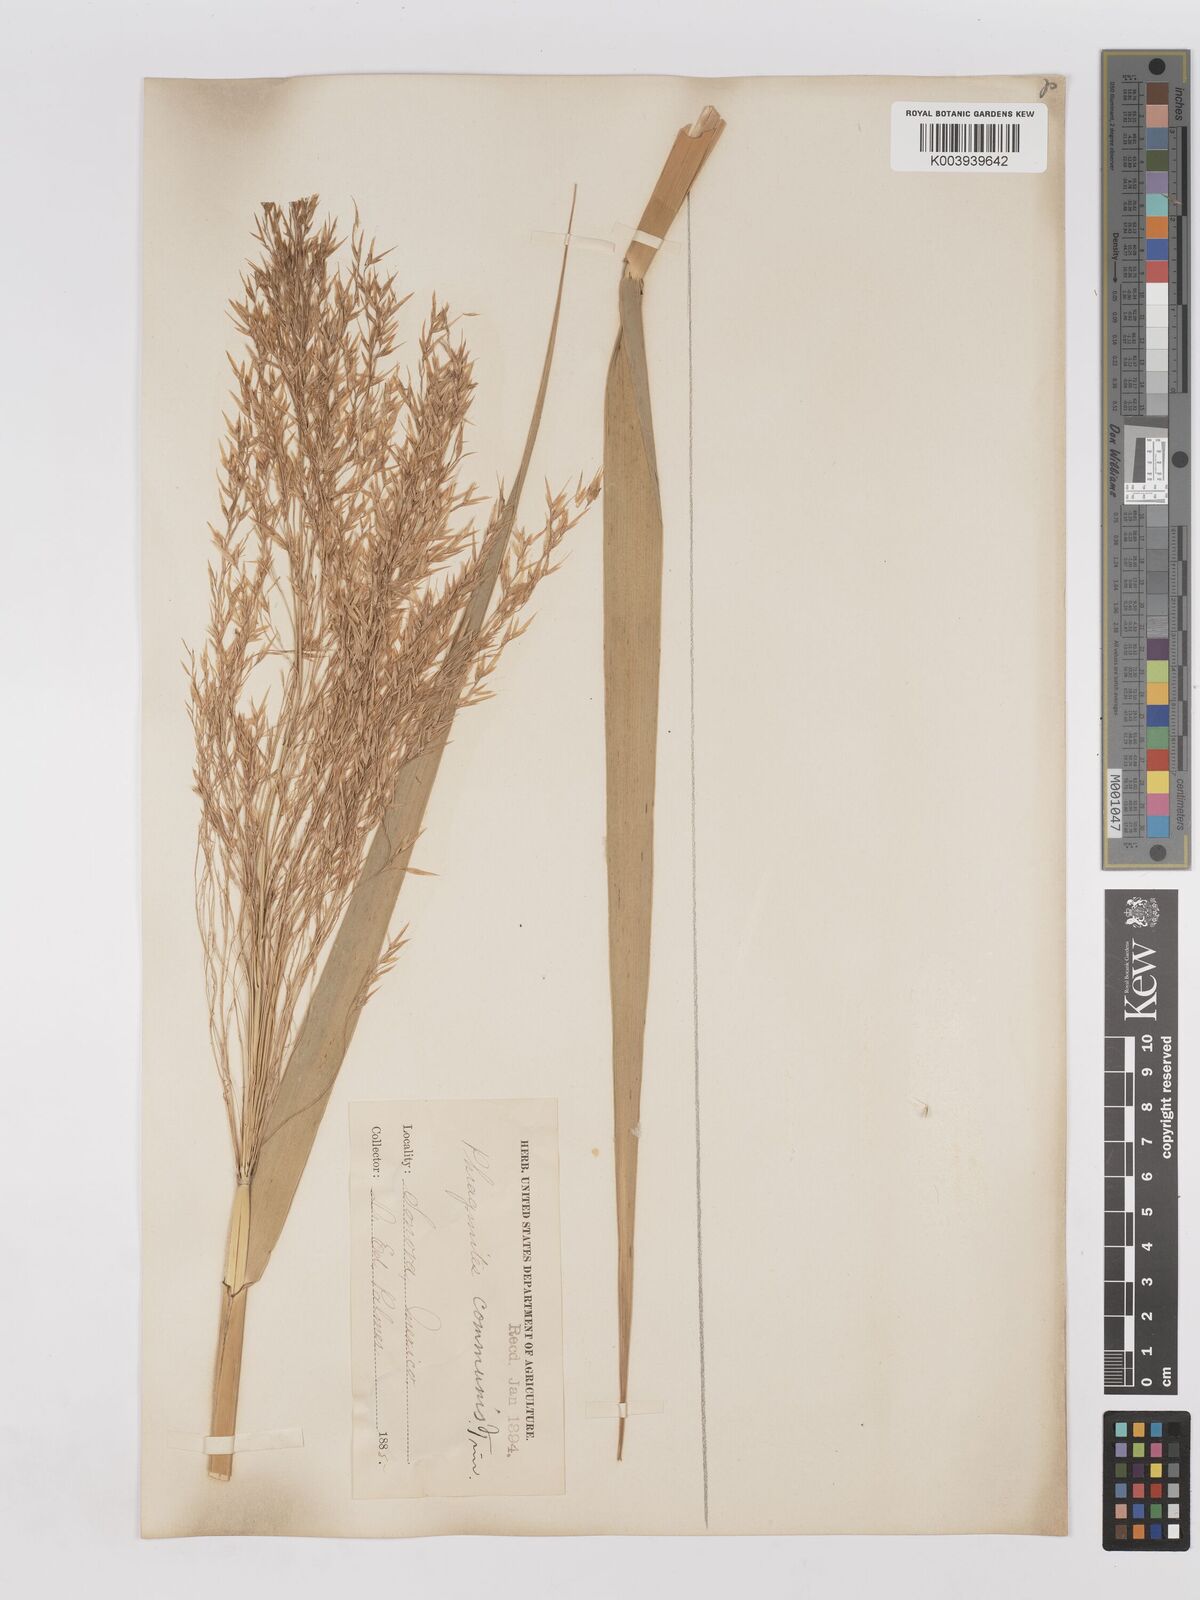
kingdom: Plantae
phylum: Tracheophyta
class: Liliopsida
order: Poales
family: Poaceae
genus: Phragmites
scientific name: Phragmites australis
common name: Common reed
